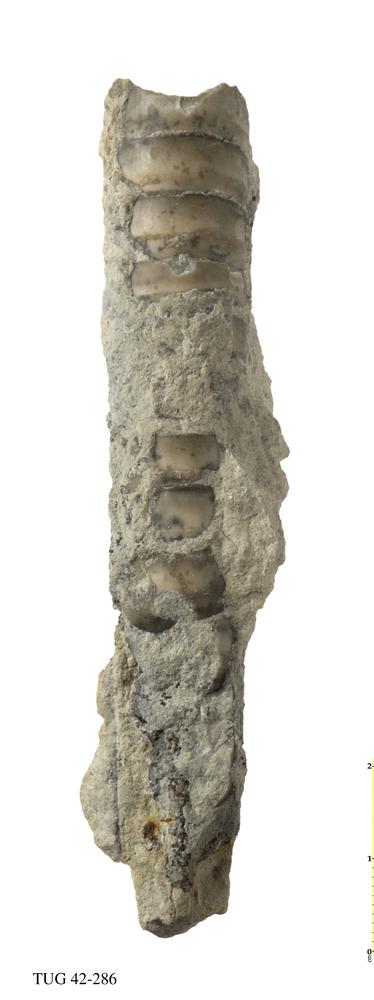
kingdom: Animalia
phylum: Mollusca
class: Cephalopoda
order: Orthocerida
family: Orthoceratidae
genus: Orthoceras
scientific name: Orthoceras
